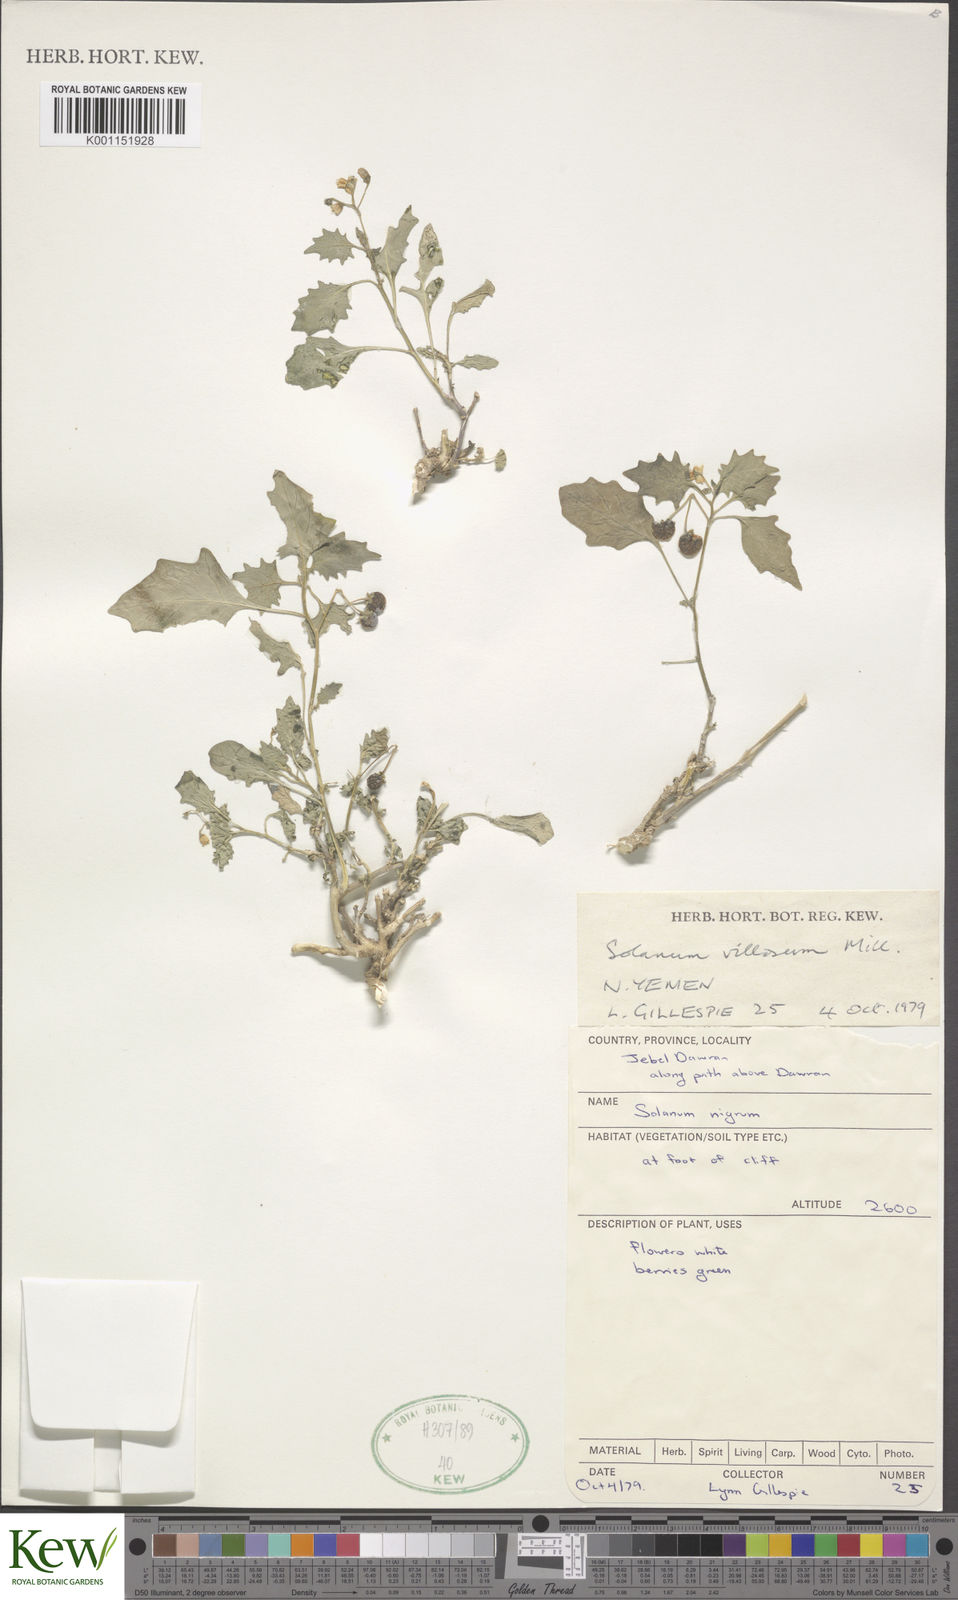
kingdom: Plantae
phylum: Tracheophyta
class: Magnoliopsida
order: Solanales
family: Solanaceae
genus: Solanum
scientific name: Solanum villosum
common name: Red nightshade
